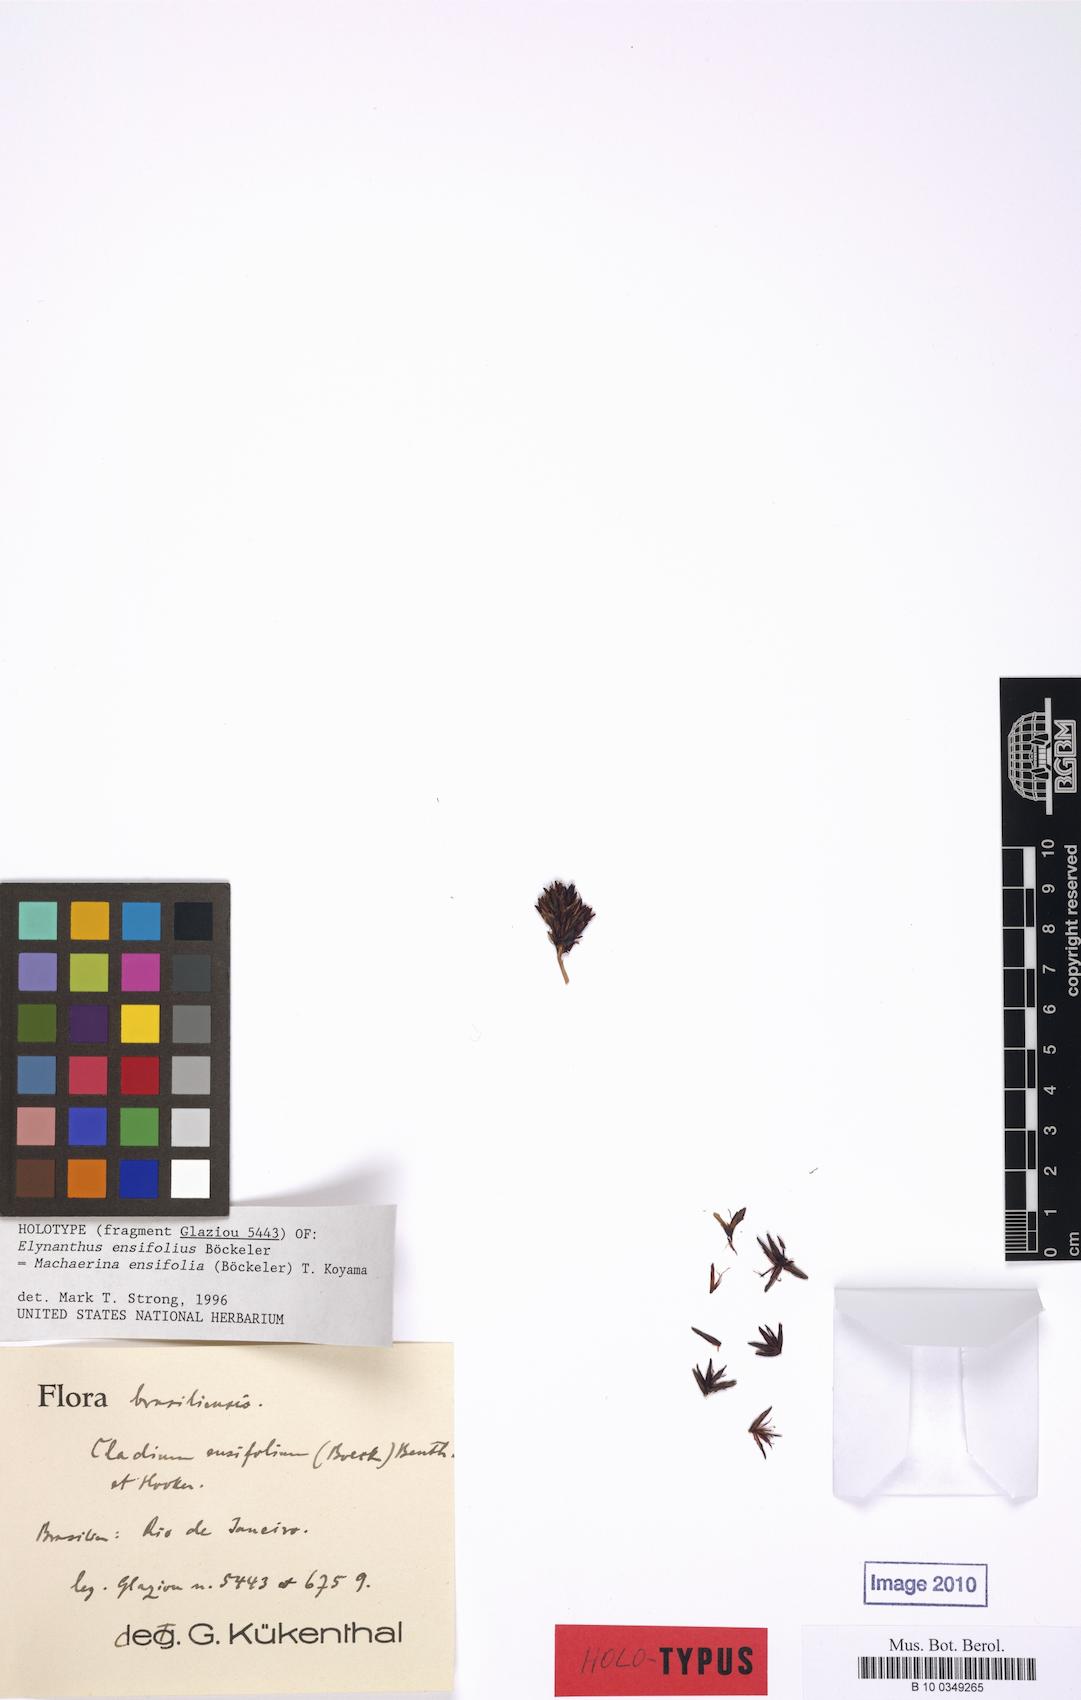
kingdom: Plantae
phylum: Tracheophyta
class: Liliopsida
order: Poales
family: Cyperaceae
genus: Machaerina
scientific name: Machaerina ensifolia
